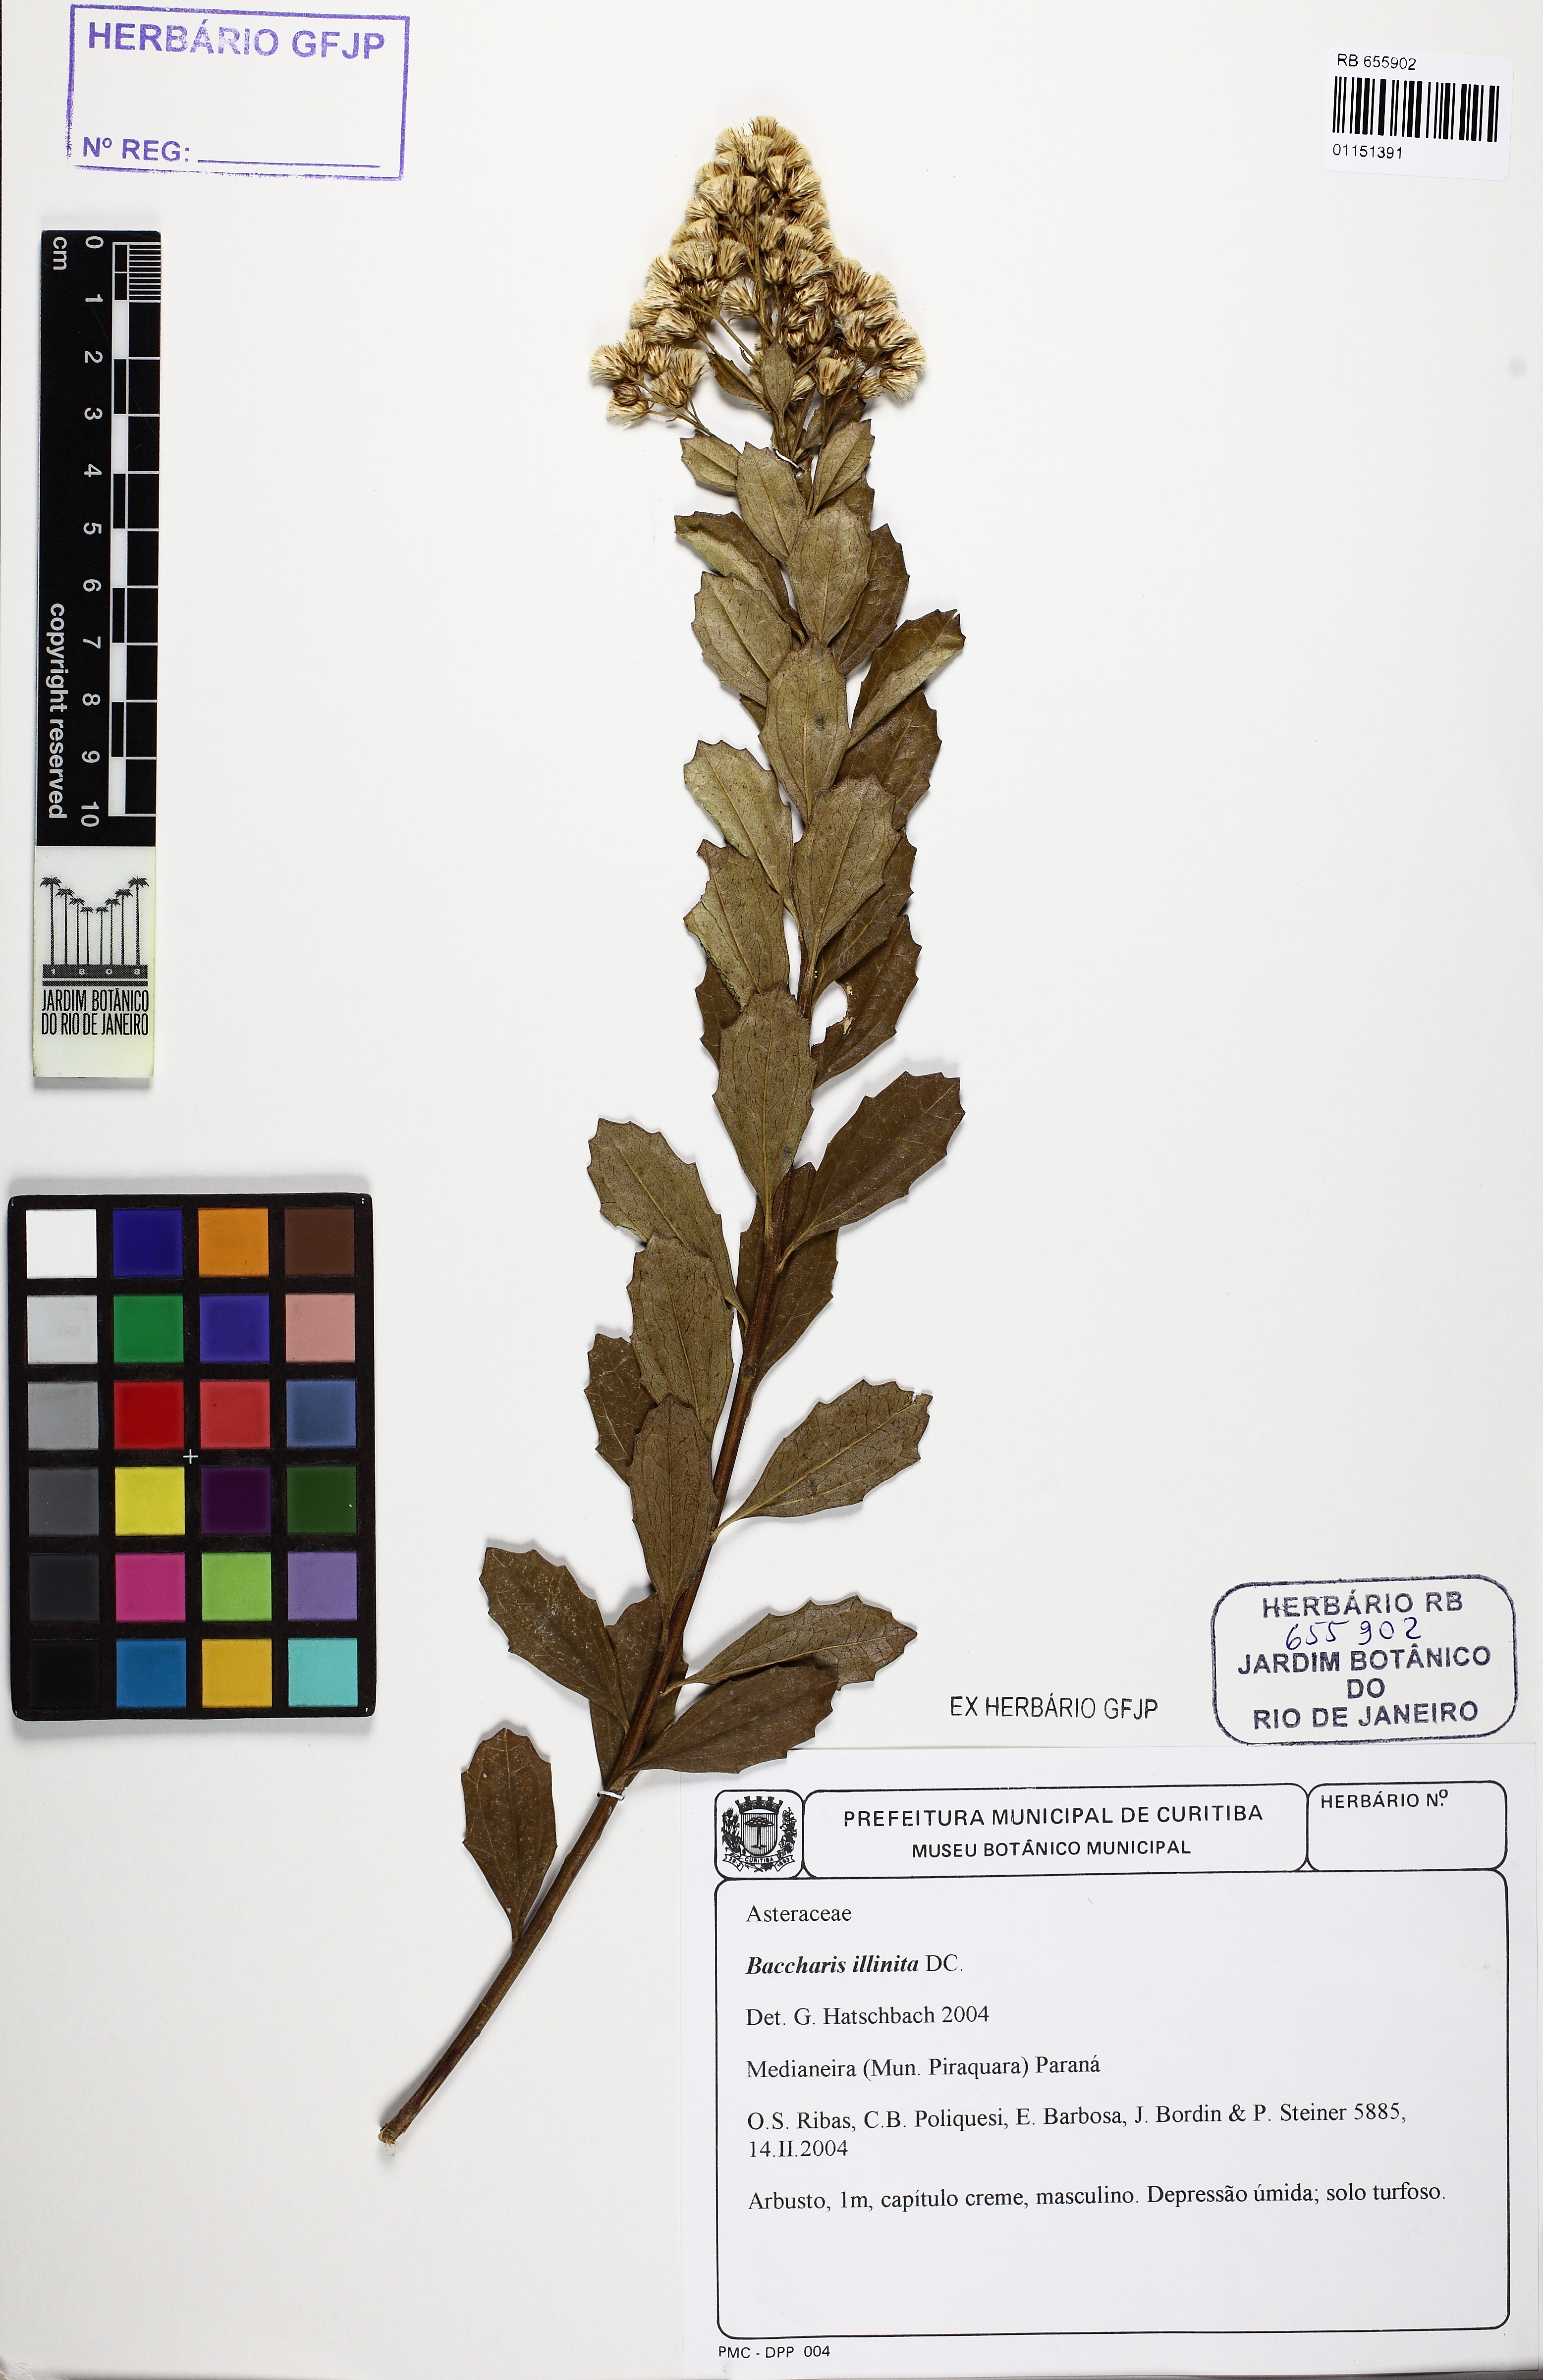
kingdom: Plantae
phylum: Tracheophyta
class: Magnoliopsida
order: Asterales
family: Asteraceae
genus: Baccharis
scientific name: Baccharis tridentata
